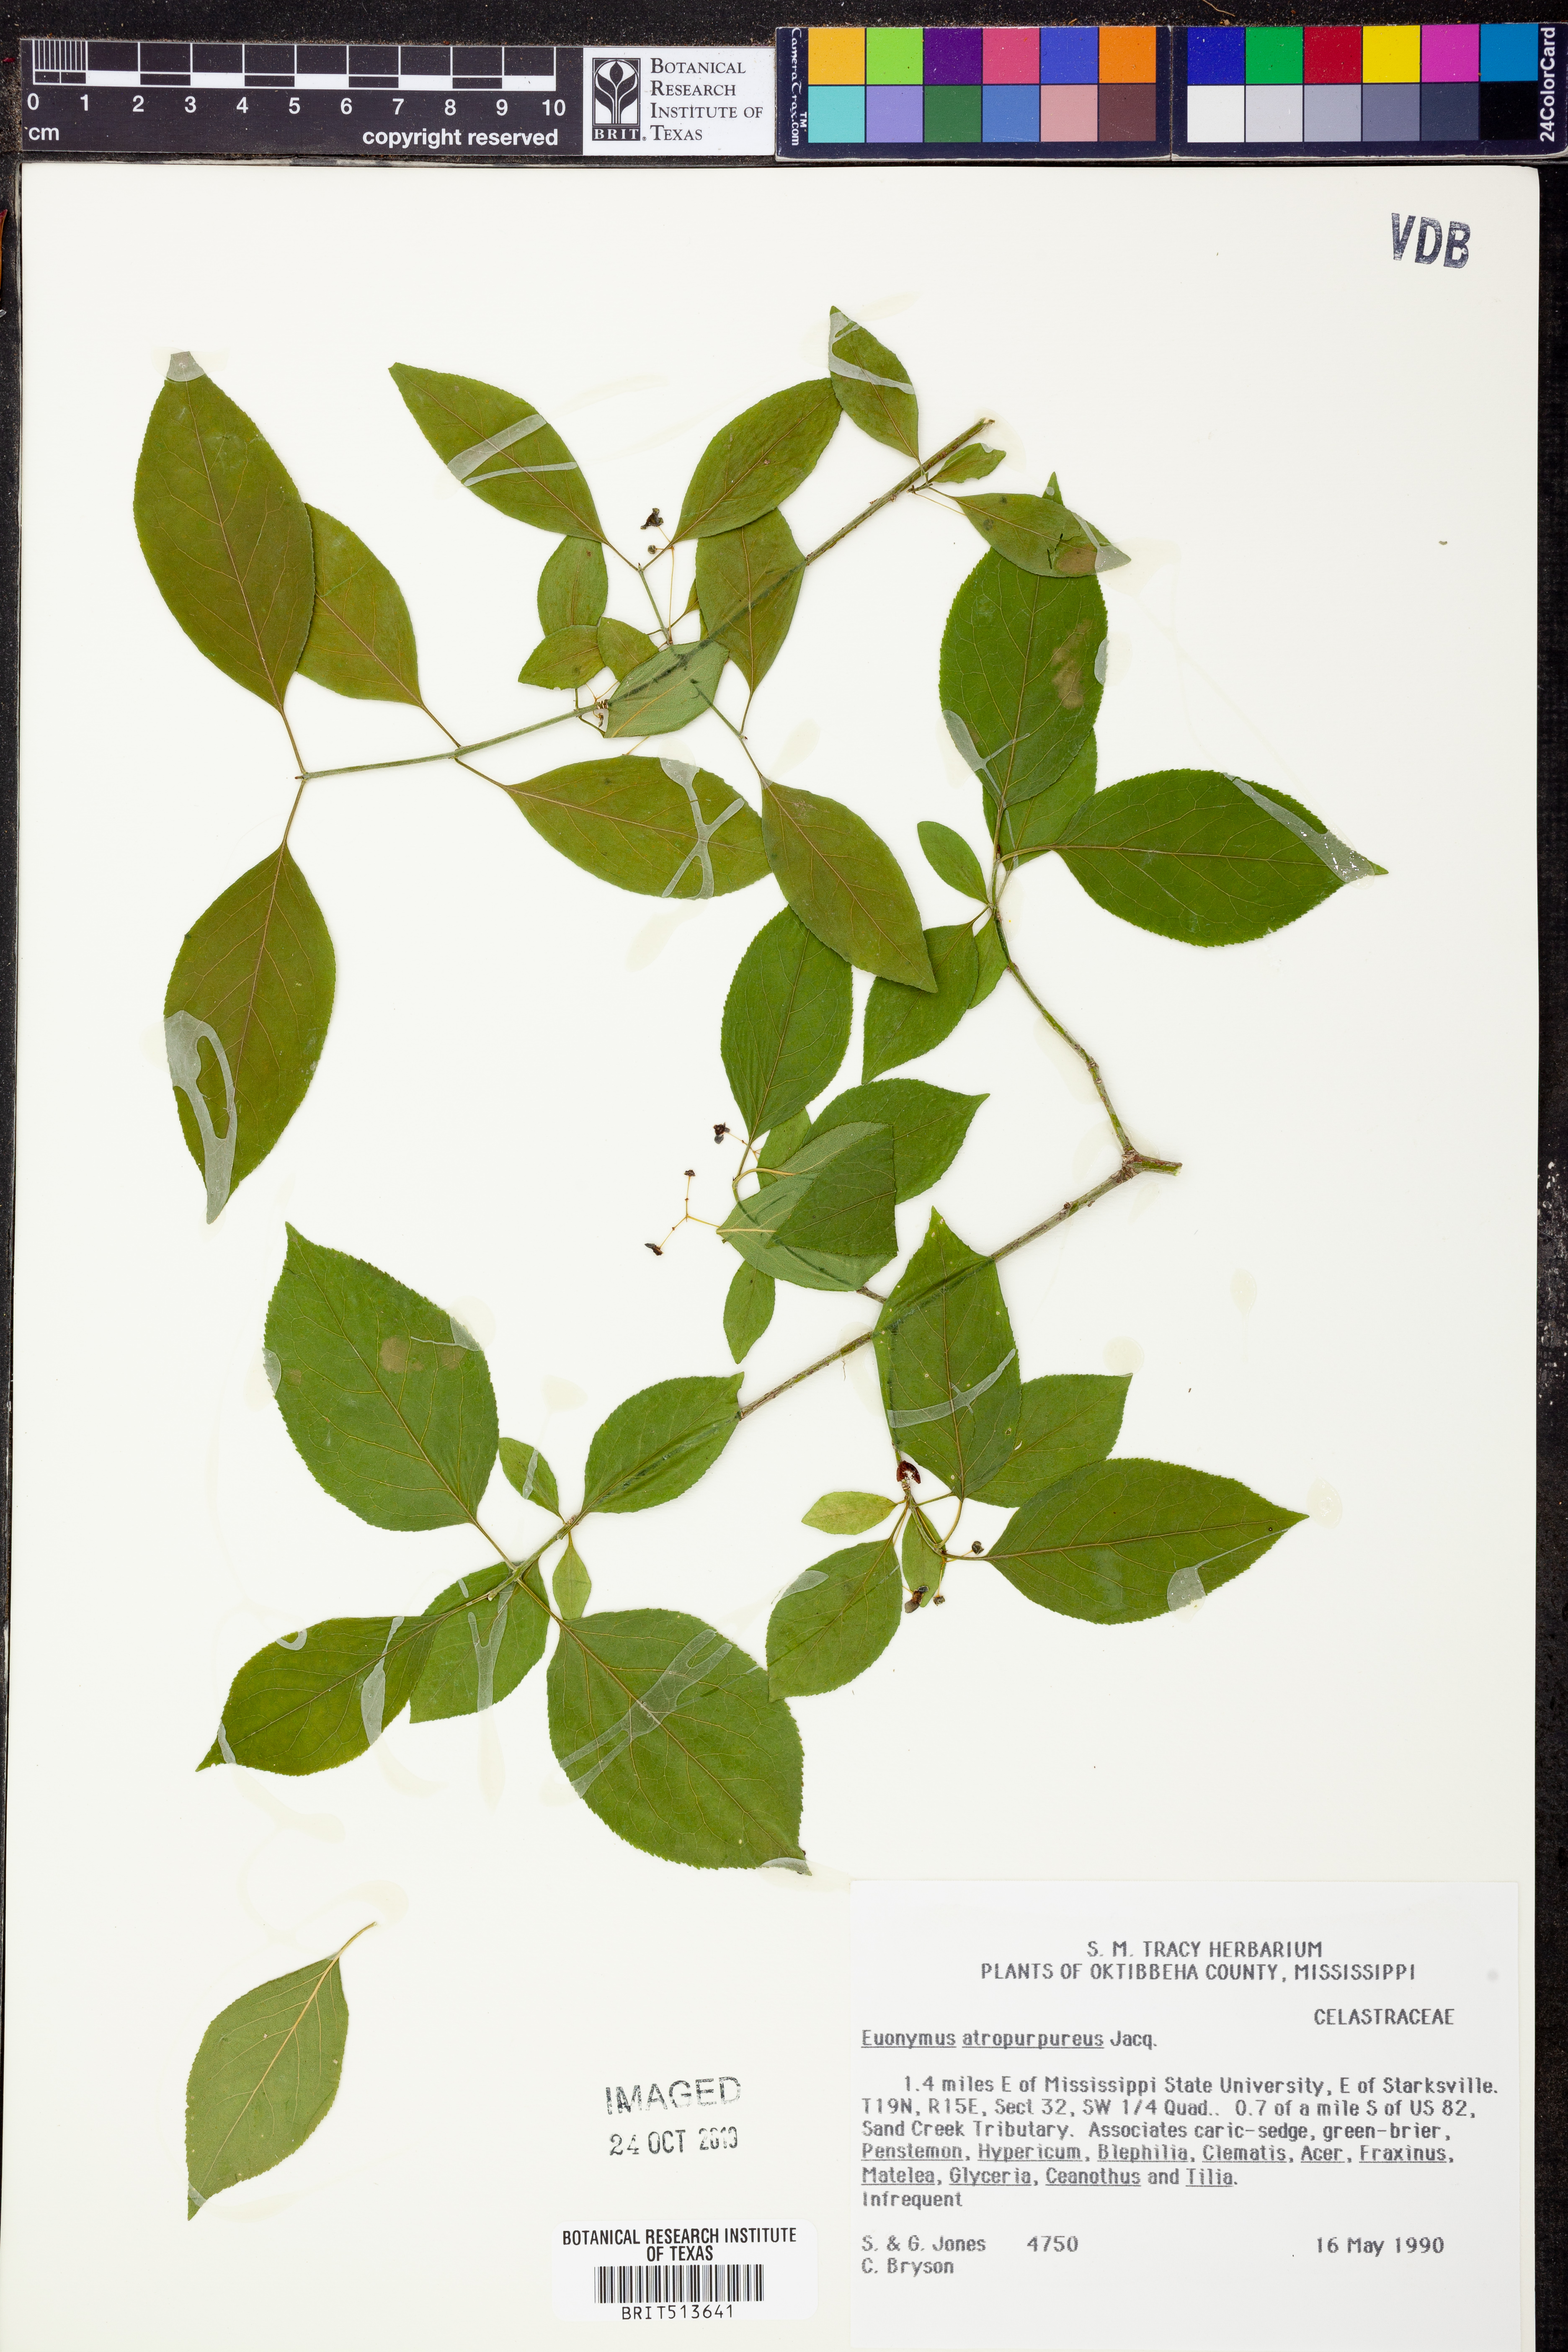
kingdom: Plantae
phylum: Tracheophyta
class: Magnoliopsida
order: Celastrales
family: Celastraceae
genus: Euonymus
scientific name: Euonymus atropurpureus
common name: Eastern wahoo
